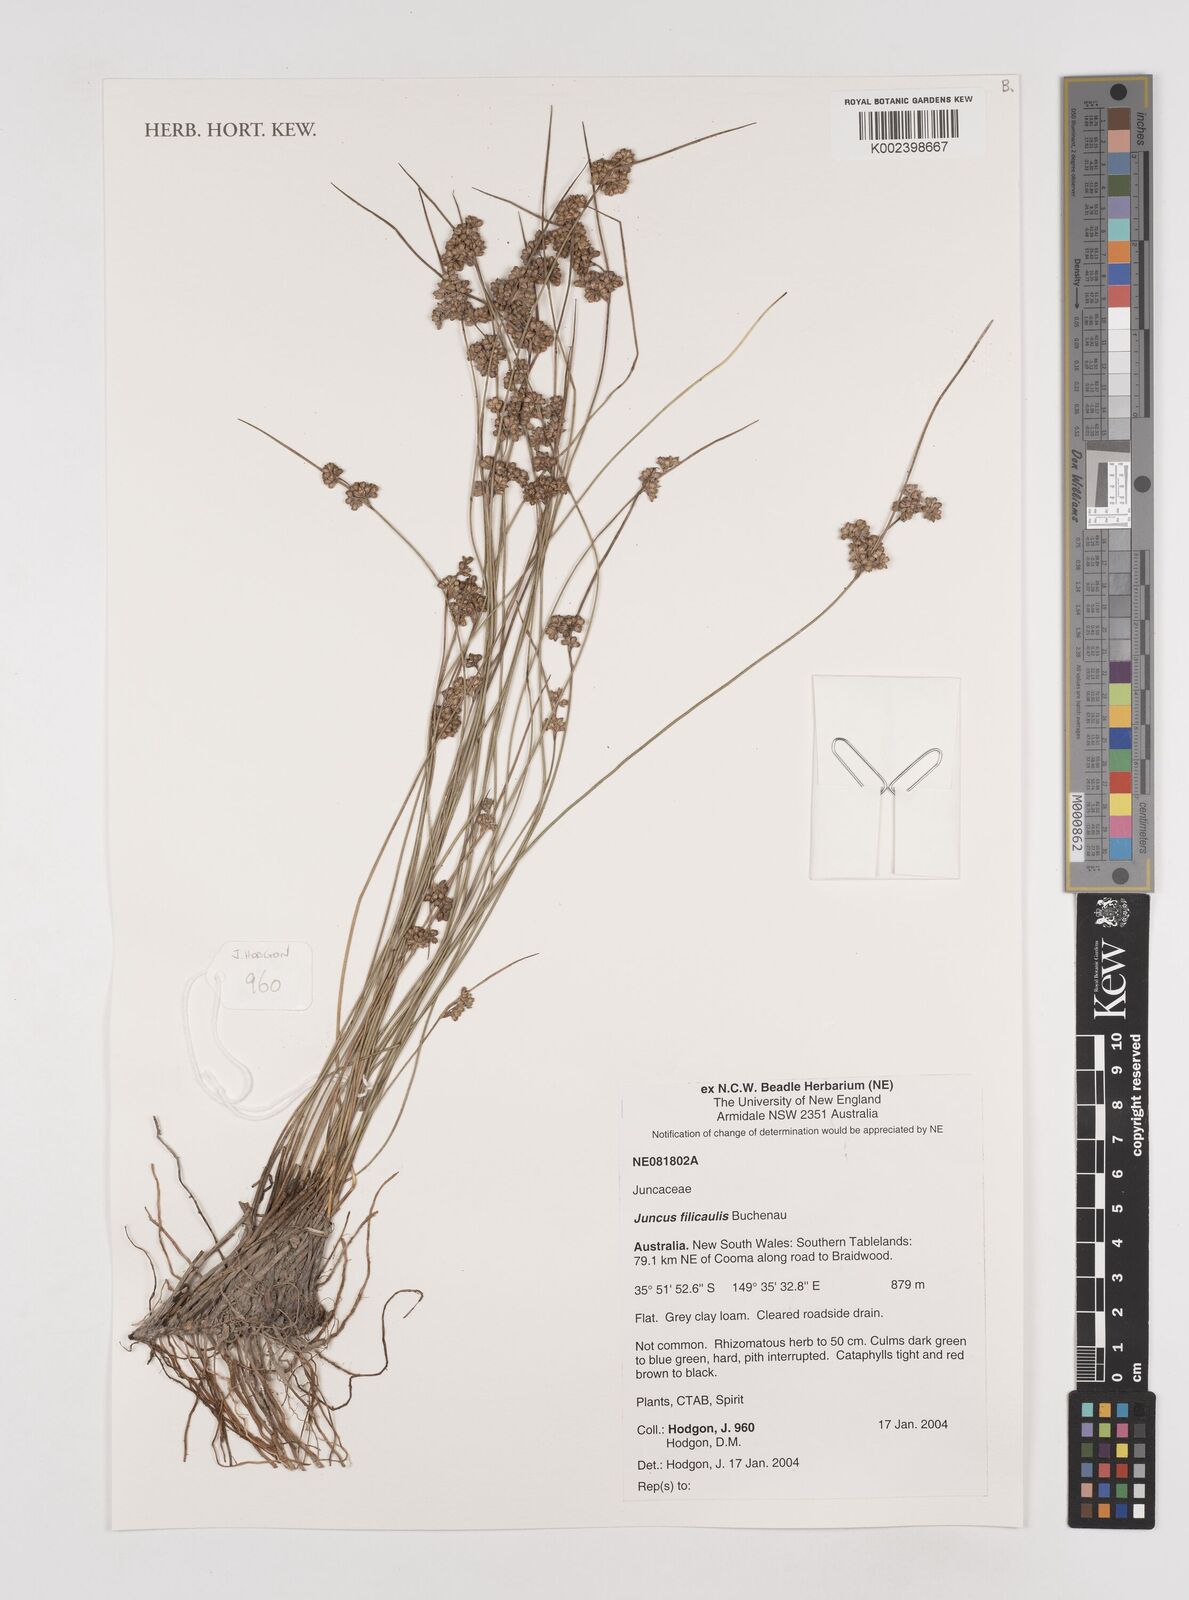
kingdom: Plantae
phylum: Tracheophyta
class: Liliopsida
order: Poales
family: Juncaceae
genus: Juncus
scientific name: Juncus filicaulis
